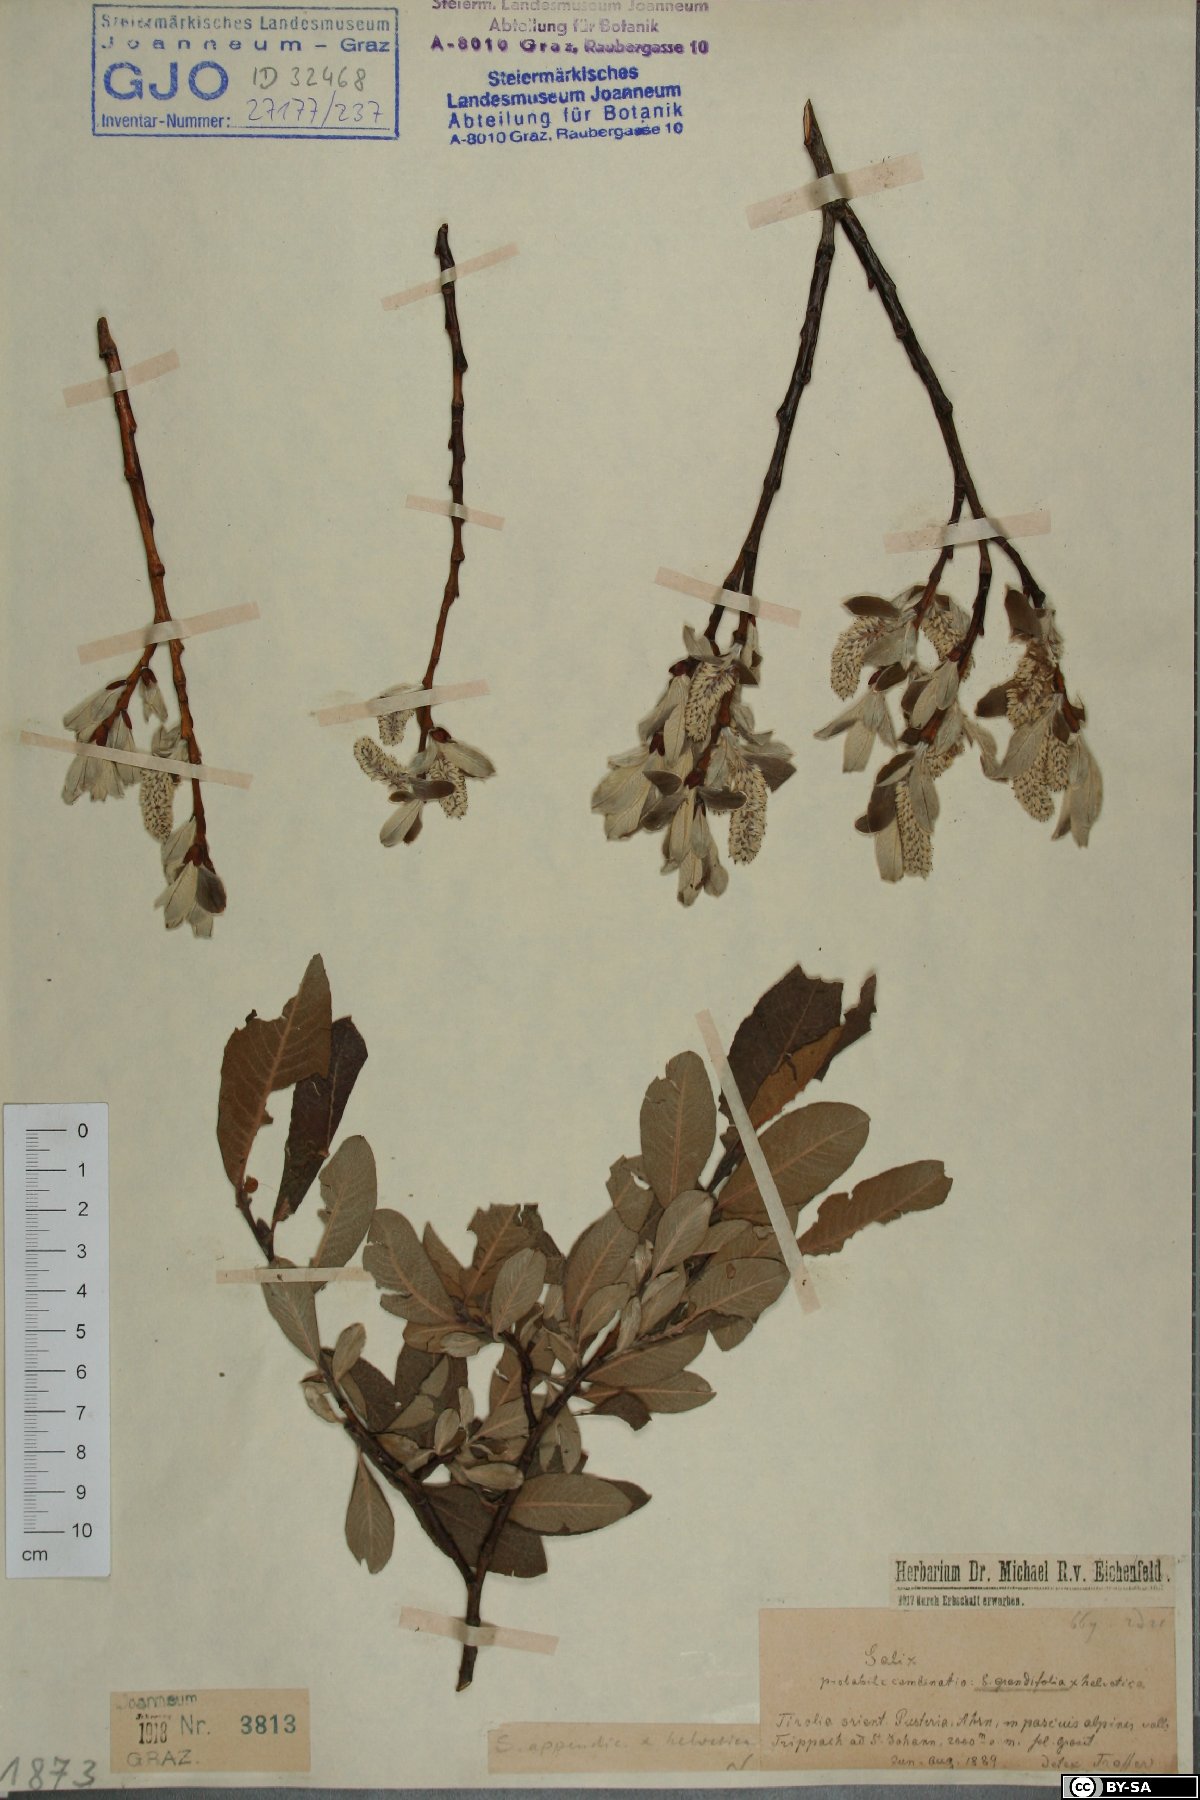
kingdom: Plantae
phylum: Tracheophyta
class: Magnoliopsida
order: Malpighiales
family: Salicaceae
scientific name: Salicaceae
